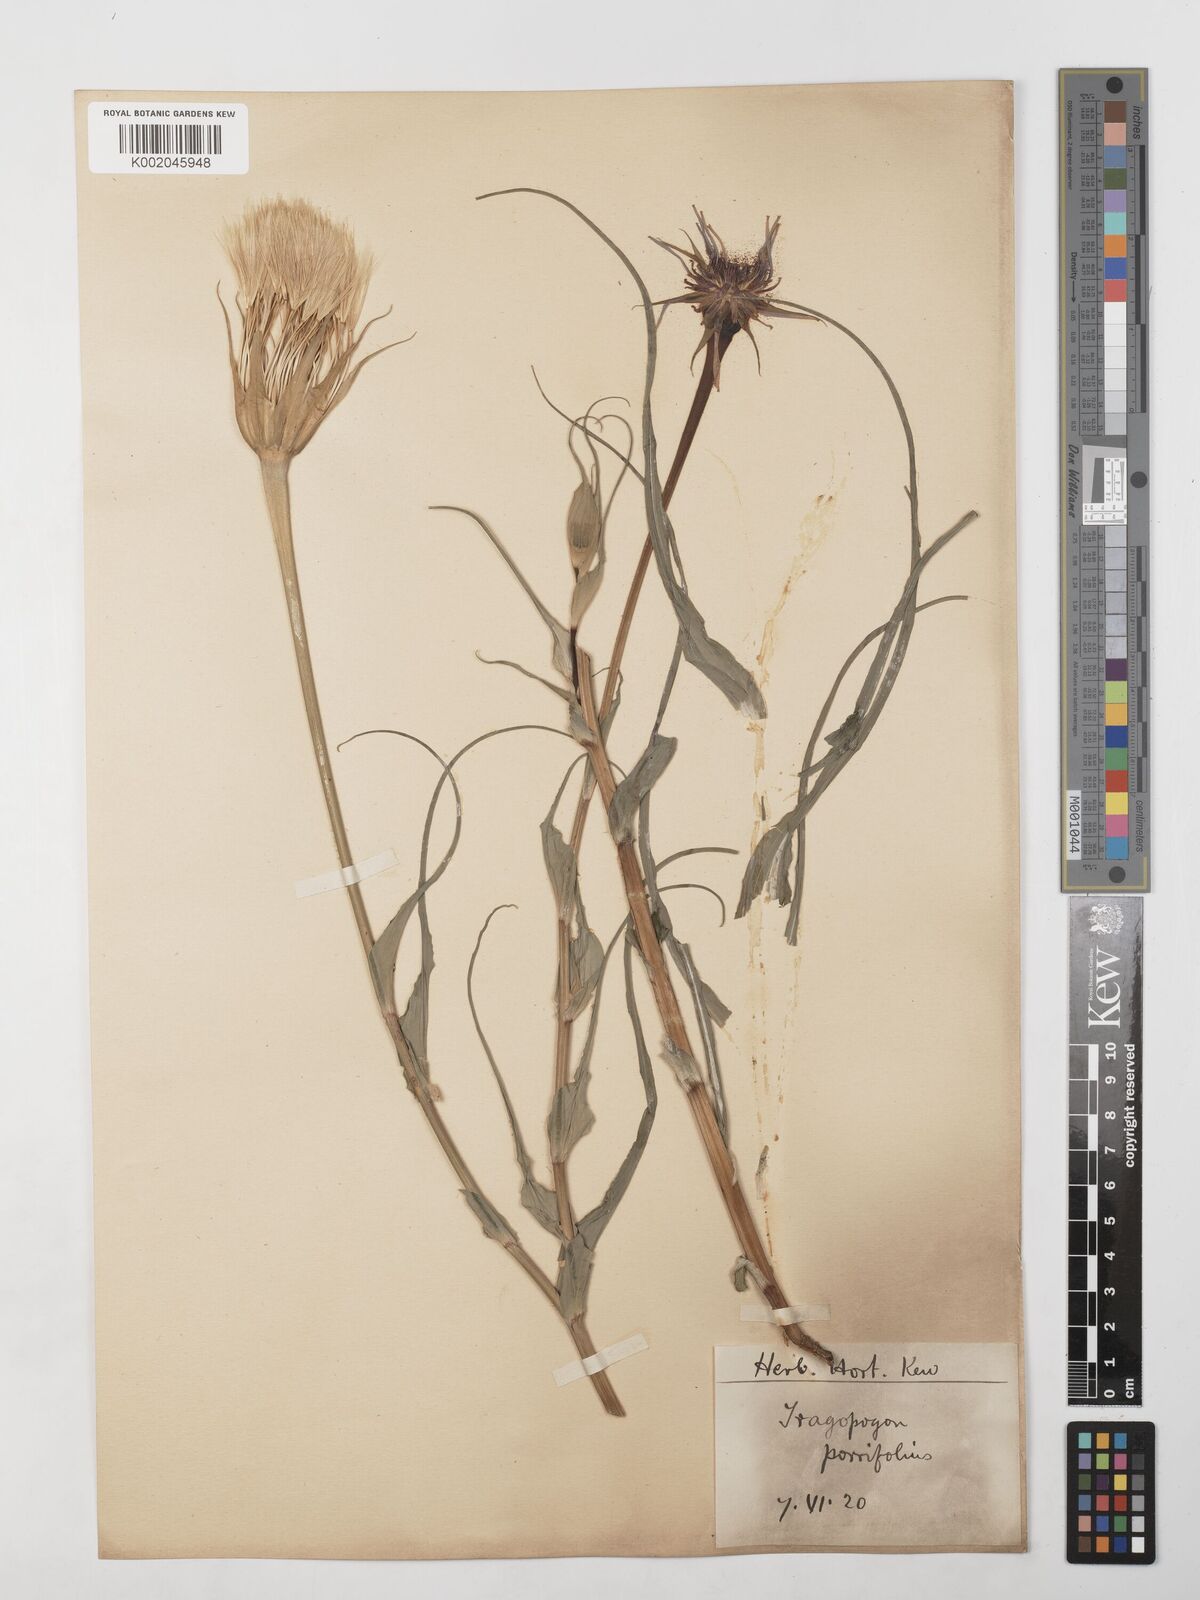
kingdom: Plantae
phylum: Tracheophyta
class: Magnoliopsida
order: Asterales
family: Asteraceae
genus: Tragopogon
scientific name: Tragopogon porrifolius
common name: Salsify
